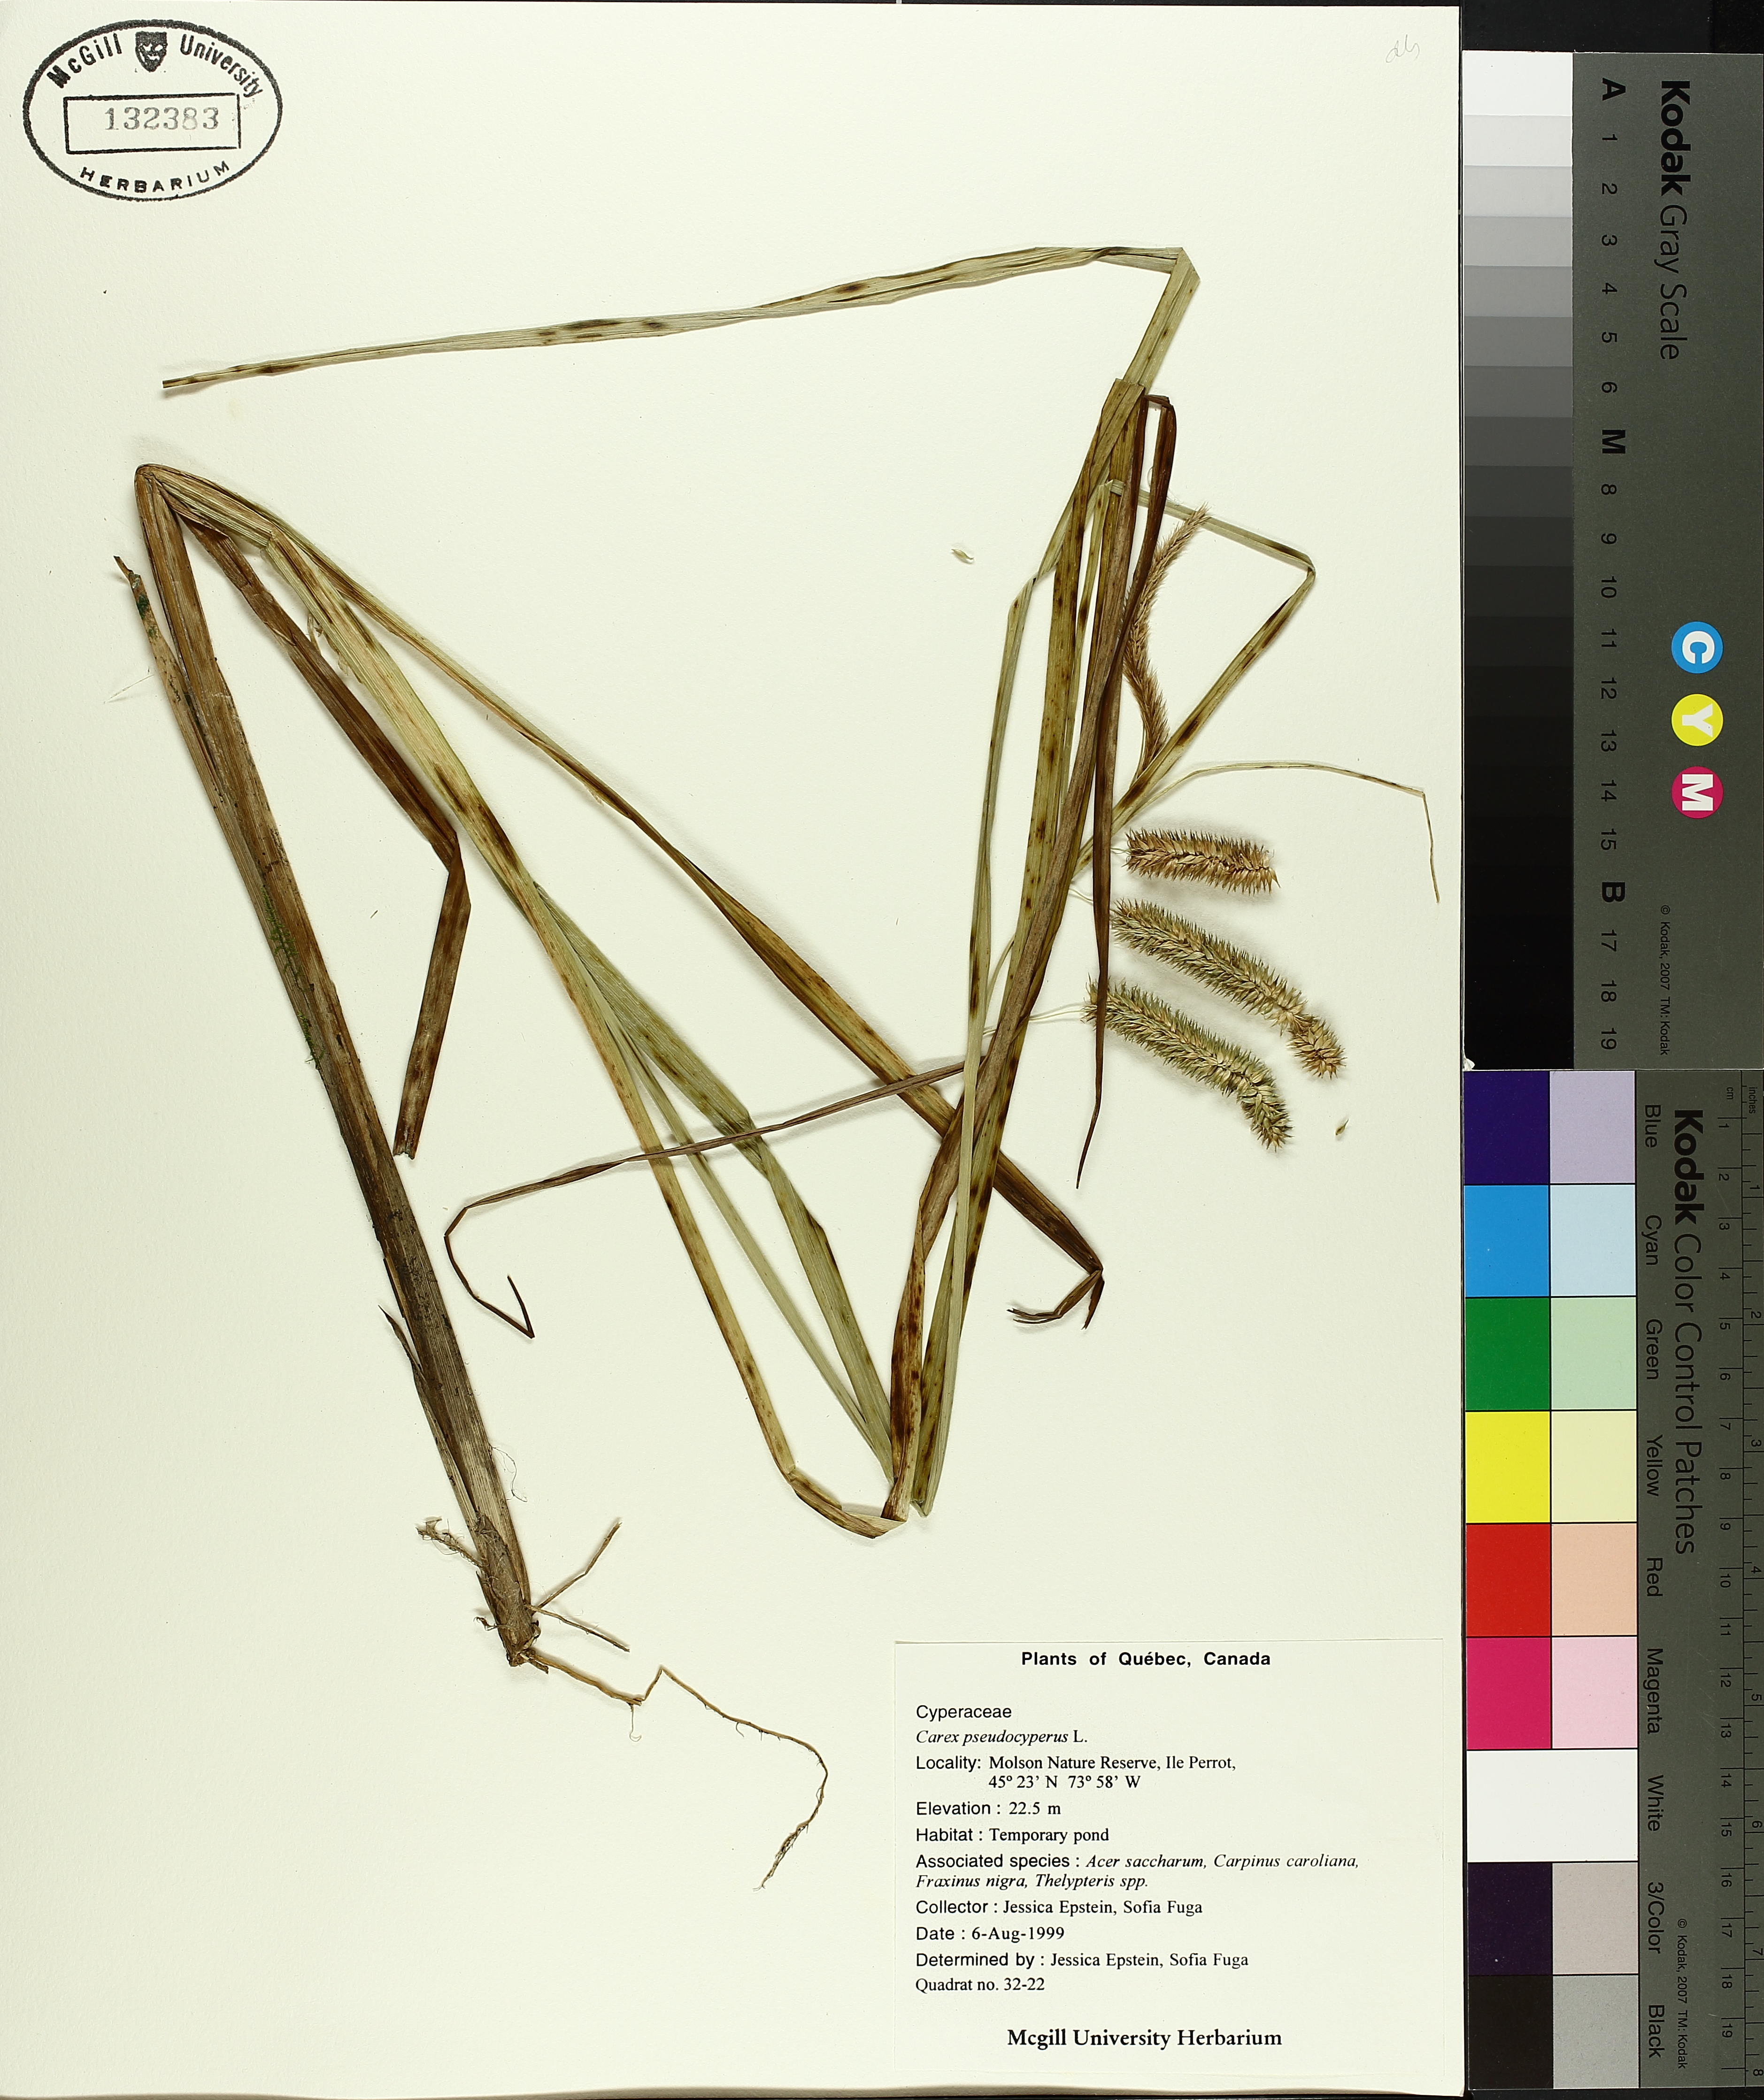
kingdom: Plantae
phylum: Tracheophyta
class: Liliopsida
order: Poales
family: Cyperaceae
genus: Carex
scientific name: Carex pseudocyperus
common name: Cyperus sedge
